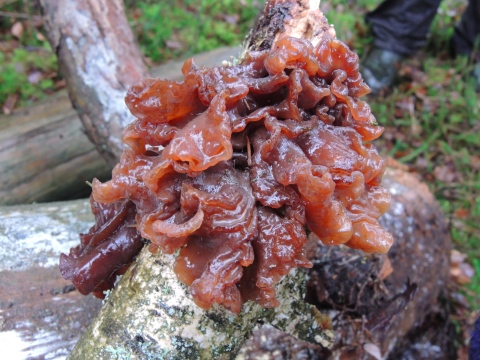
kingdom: Fungi
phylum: Basidiomycota
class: Tremellomycetes
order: Tremellales
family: Tremellaceae
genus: Phaeotremella
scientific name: Phaeotremella frondosa
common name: kæmpe-bævresvamp
